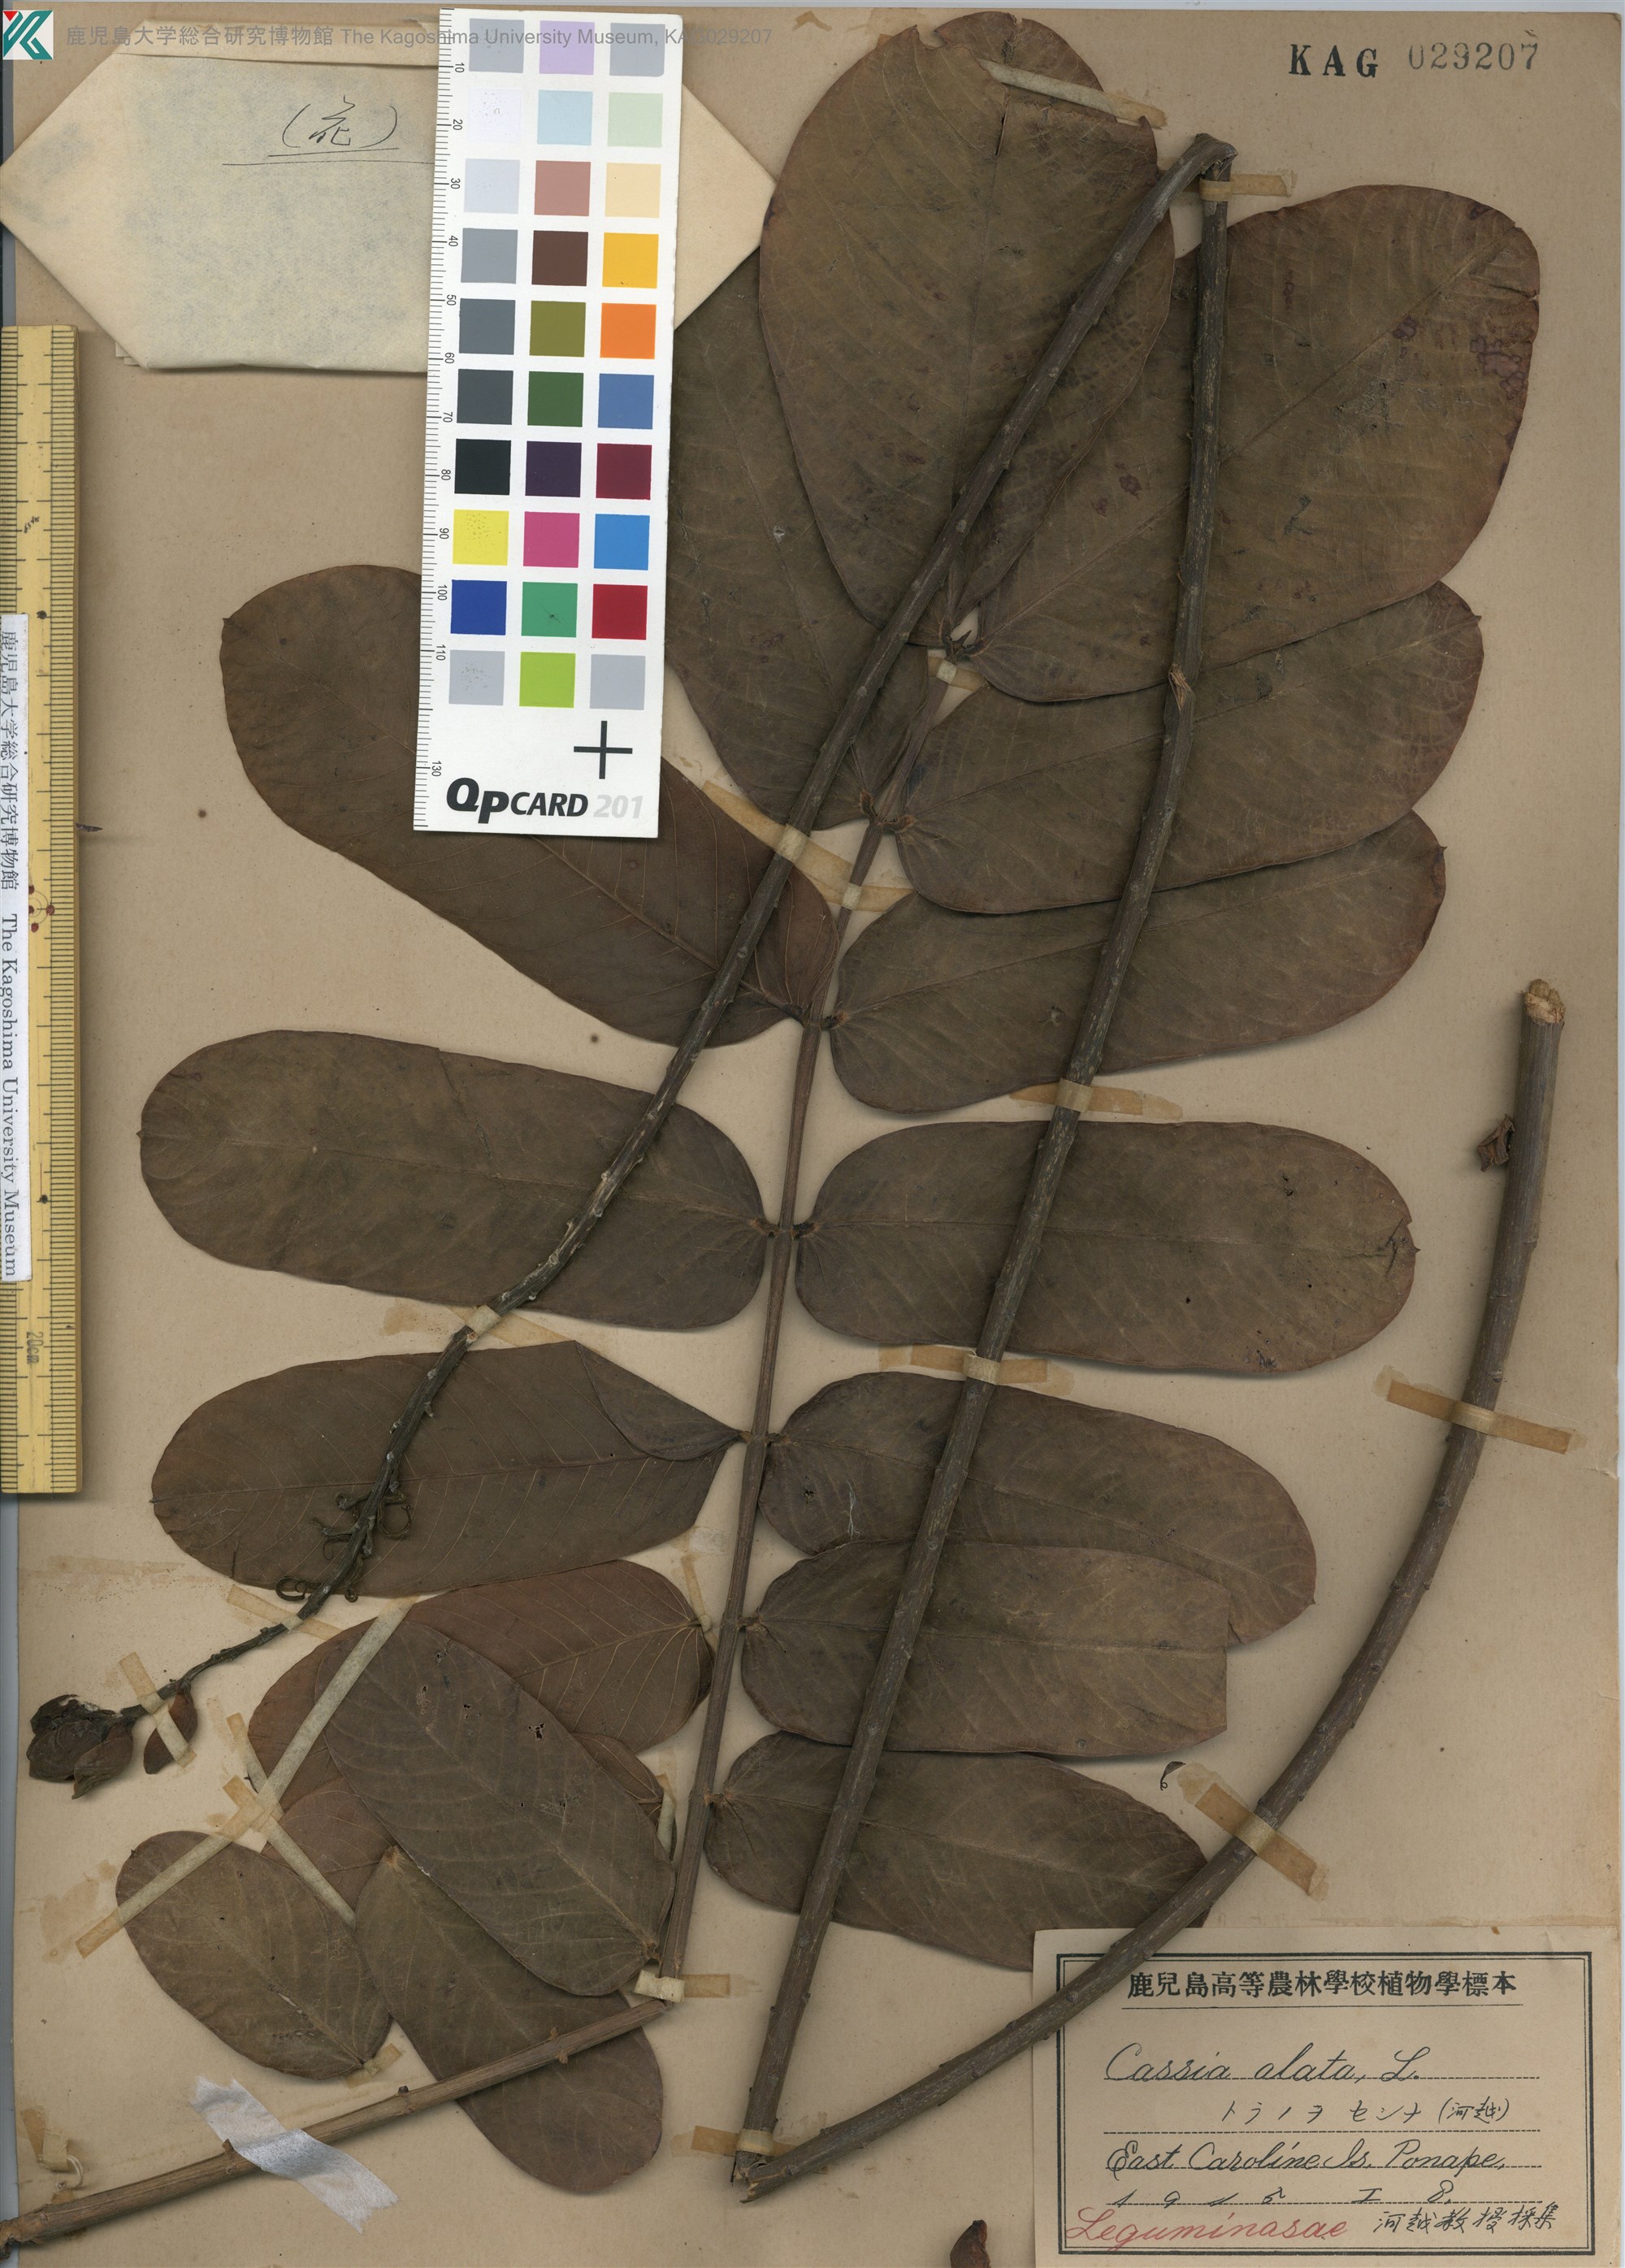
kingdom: Plantae
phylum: Tracheophyta
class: Magnoliopsida
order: Fabales
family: Fabaceae
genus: Senna
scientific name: Senna alata
